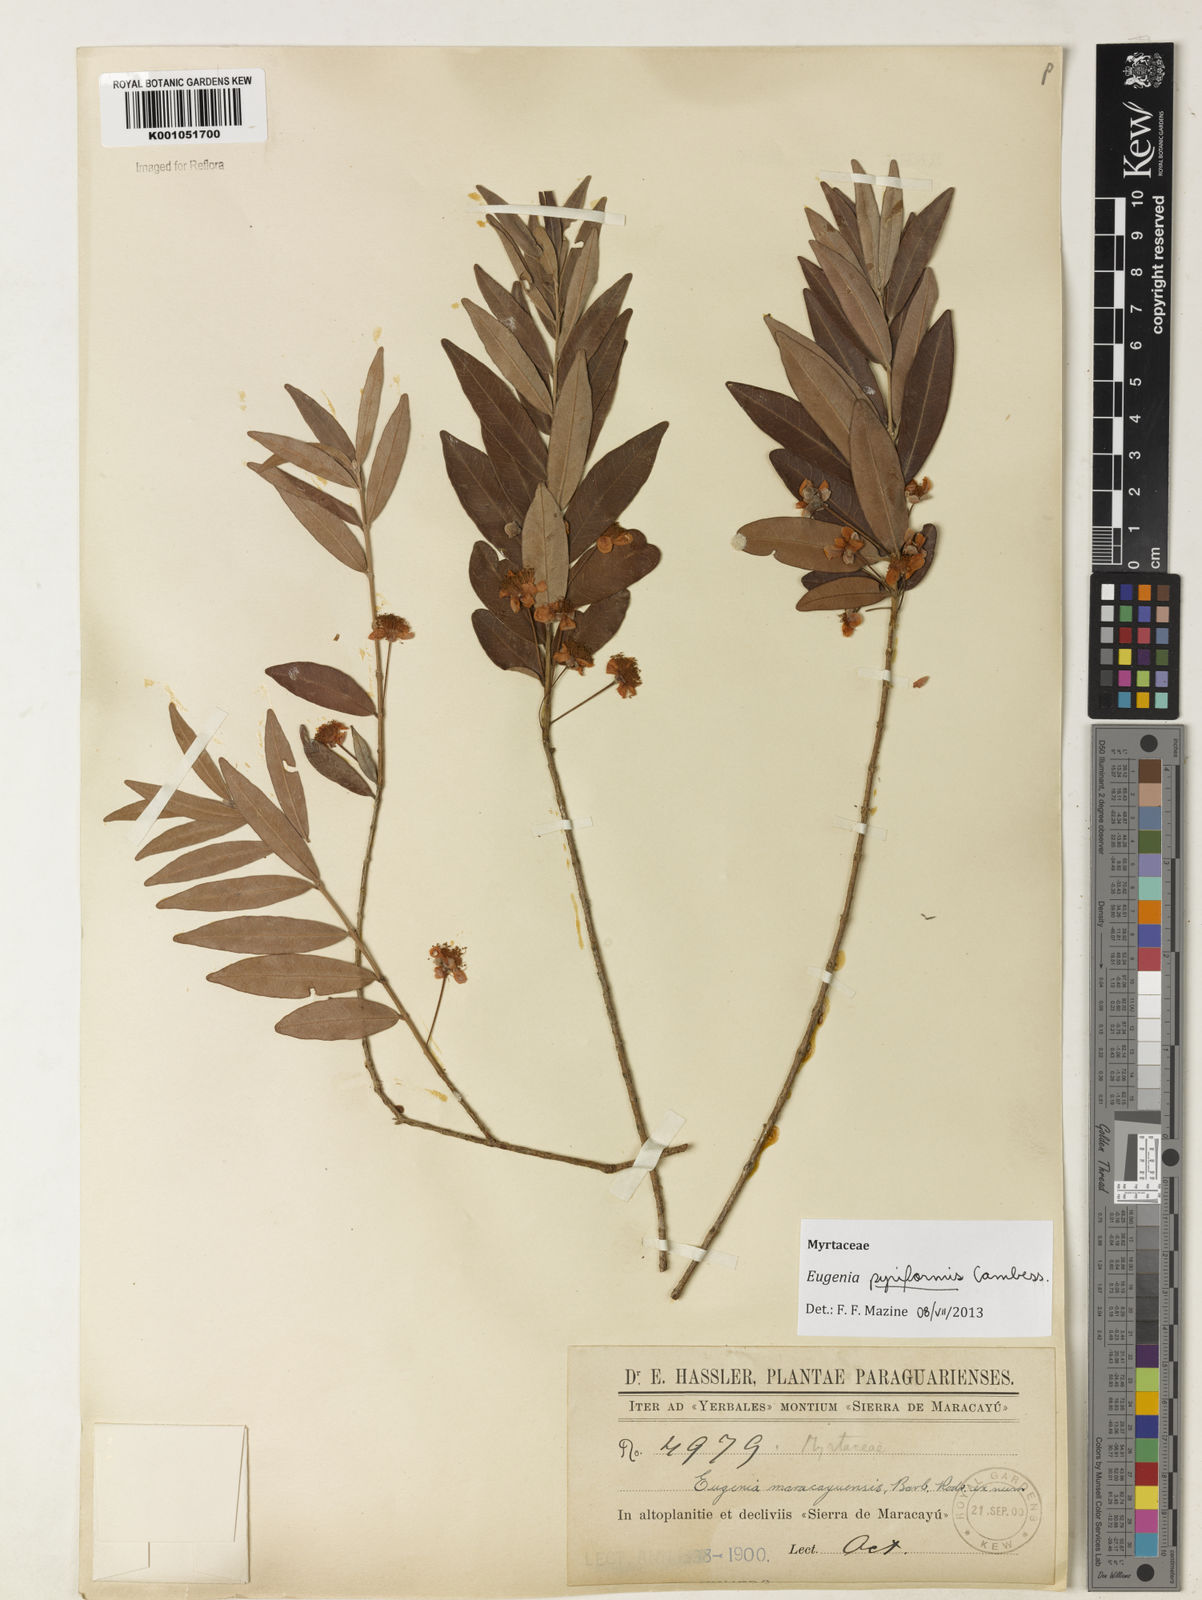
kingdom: Plantae
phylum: Tracheophyta
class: Magnoliopsida
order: Myrtales
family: Myrtaceae
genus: Eugenia
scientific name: Eugenia pyriformis
